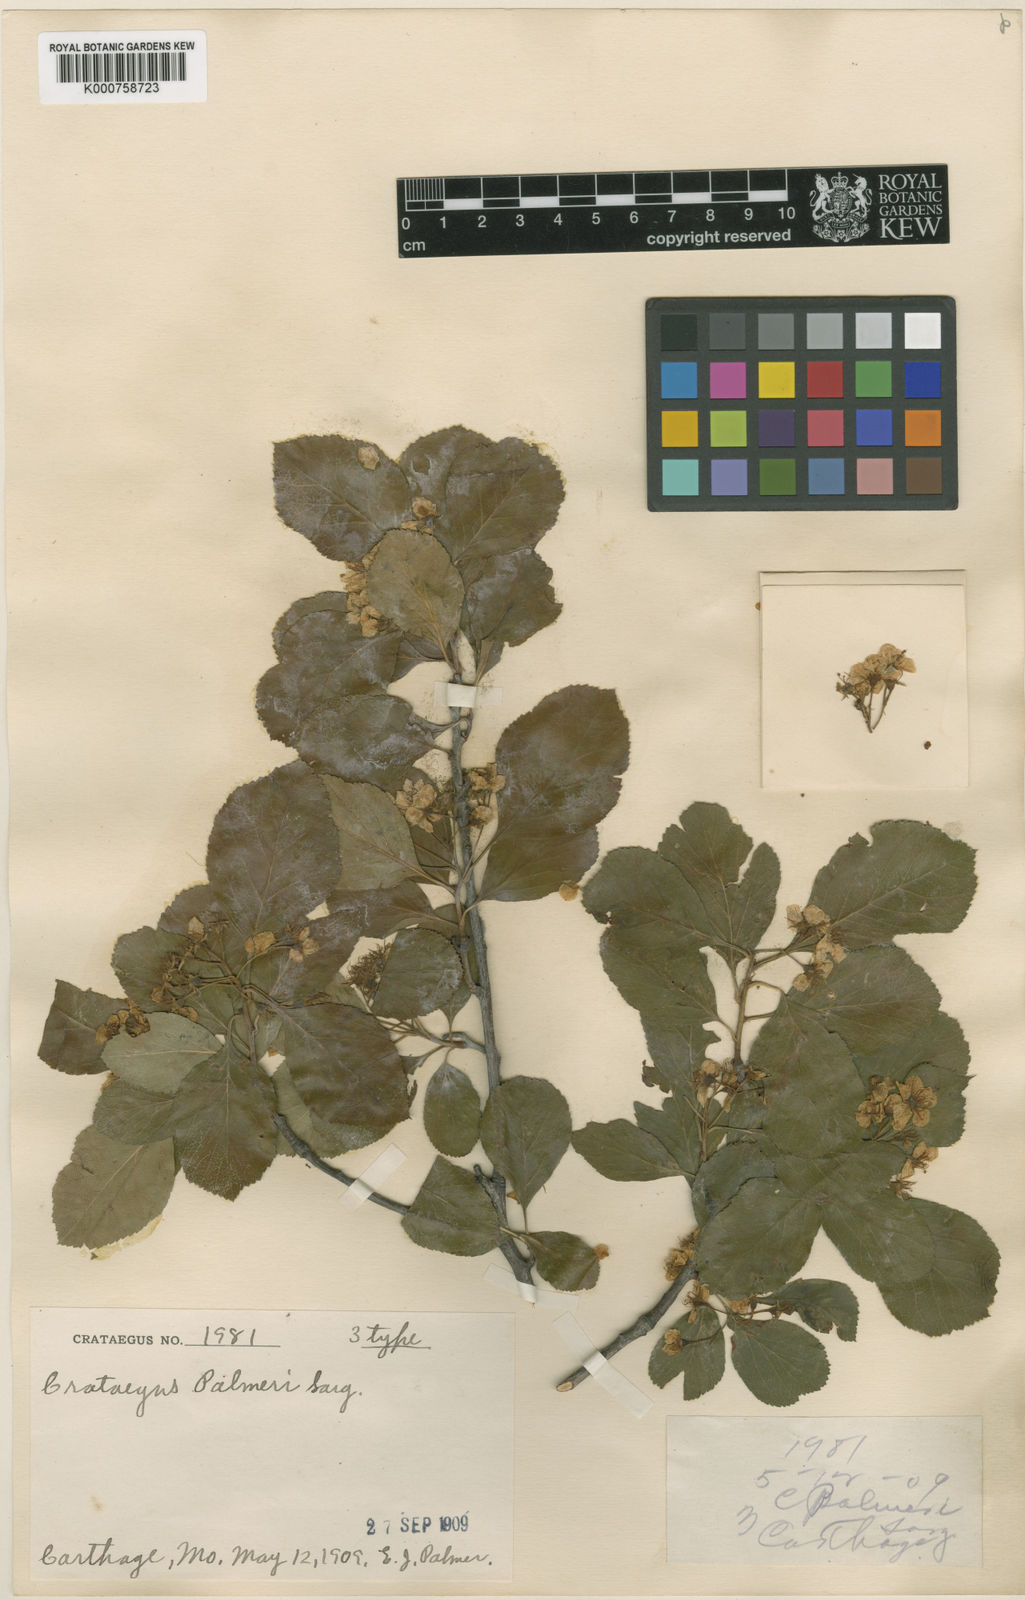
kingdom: Plantae
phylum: Tracheophyta
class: Magnoliopsida
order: Rosales
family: Rosaceae
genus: Crataegus
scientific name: Crataegus reverchonii
